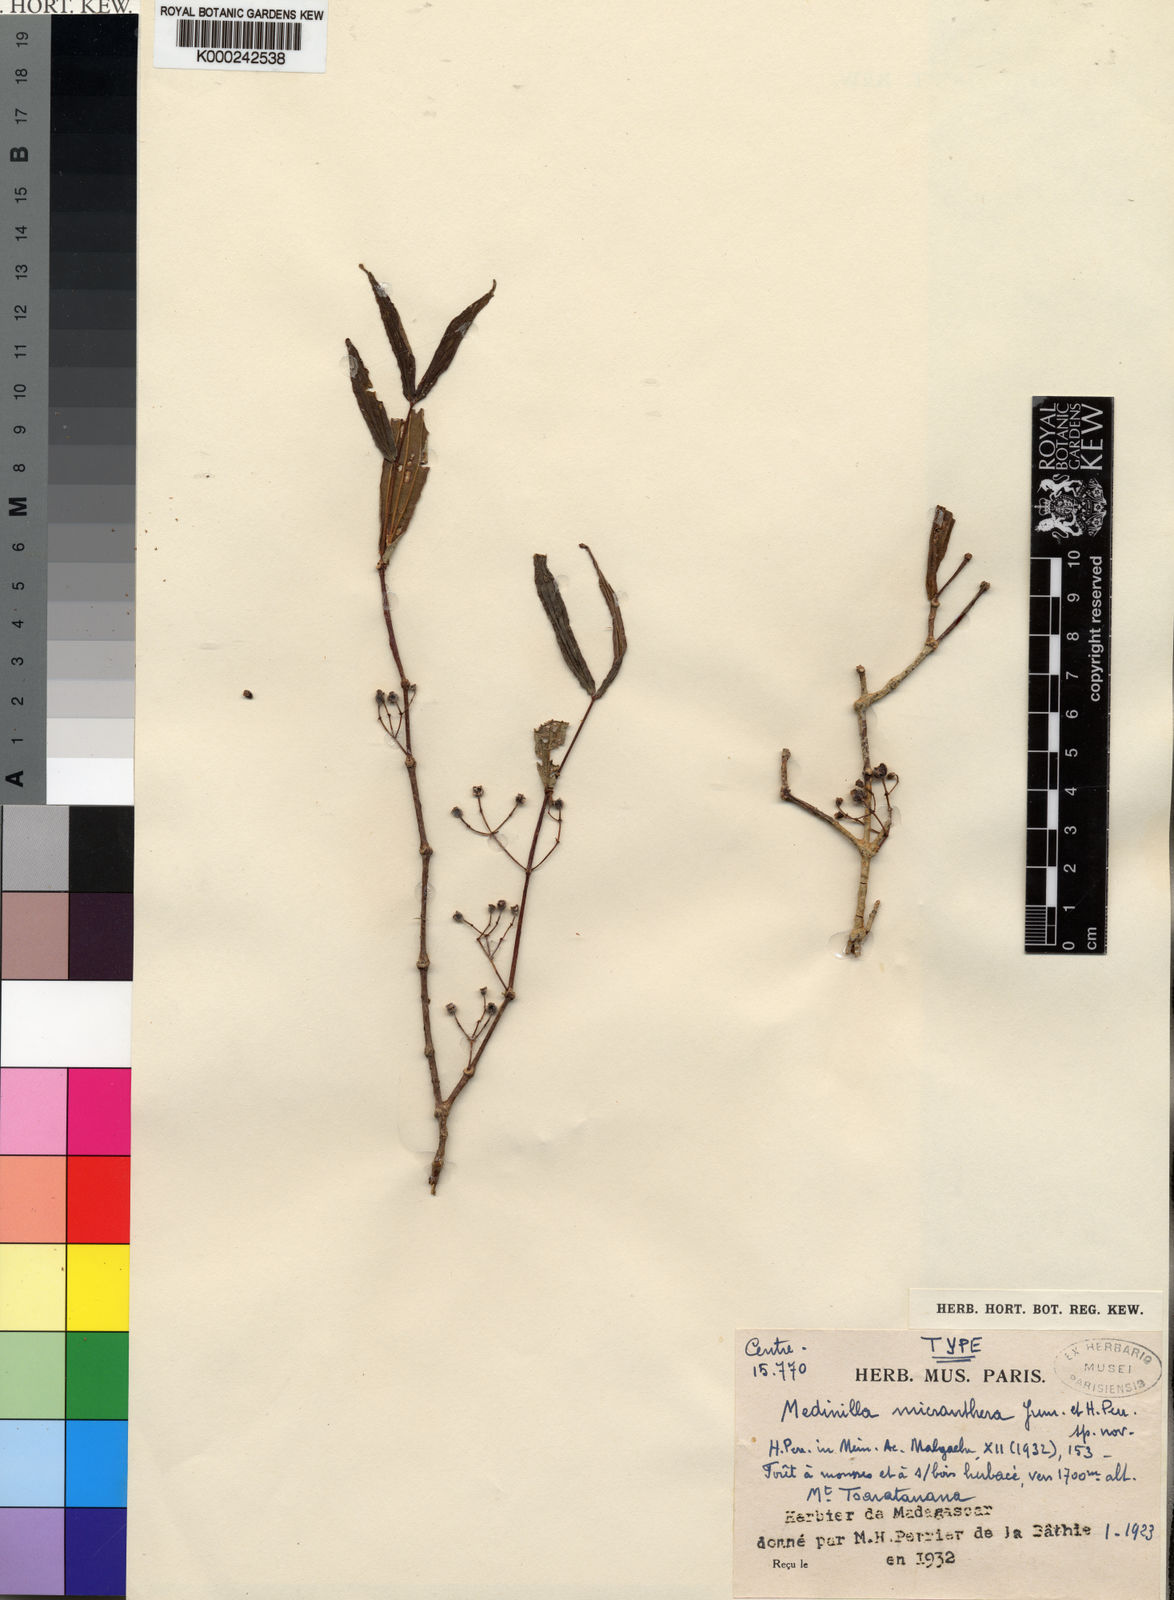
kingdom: Plantae
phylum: Tracheophyta
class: Magnoliopsida
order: Myrtales
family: Melastomataceae
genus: Medinilla
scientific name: Medinilla micranthera
